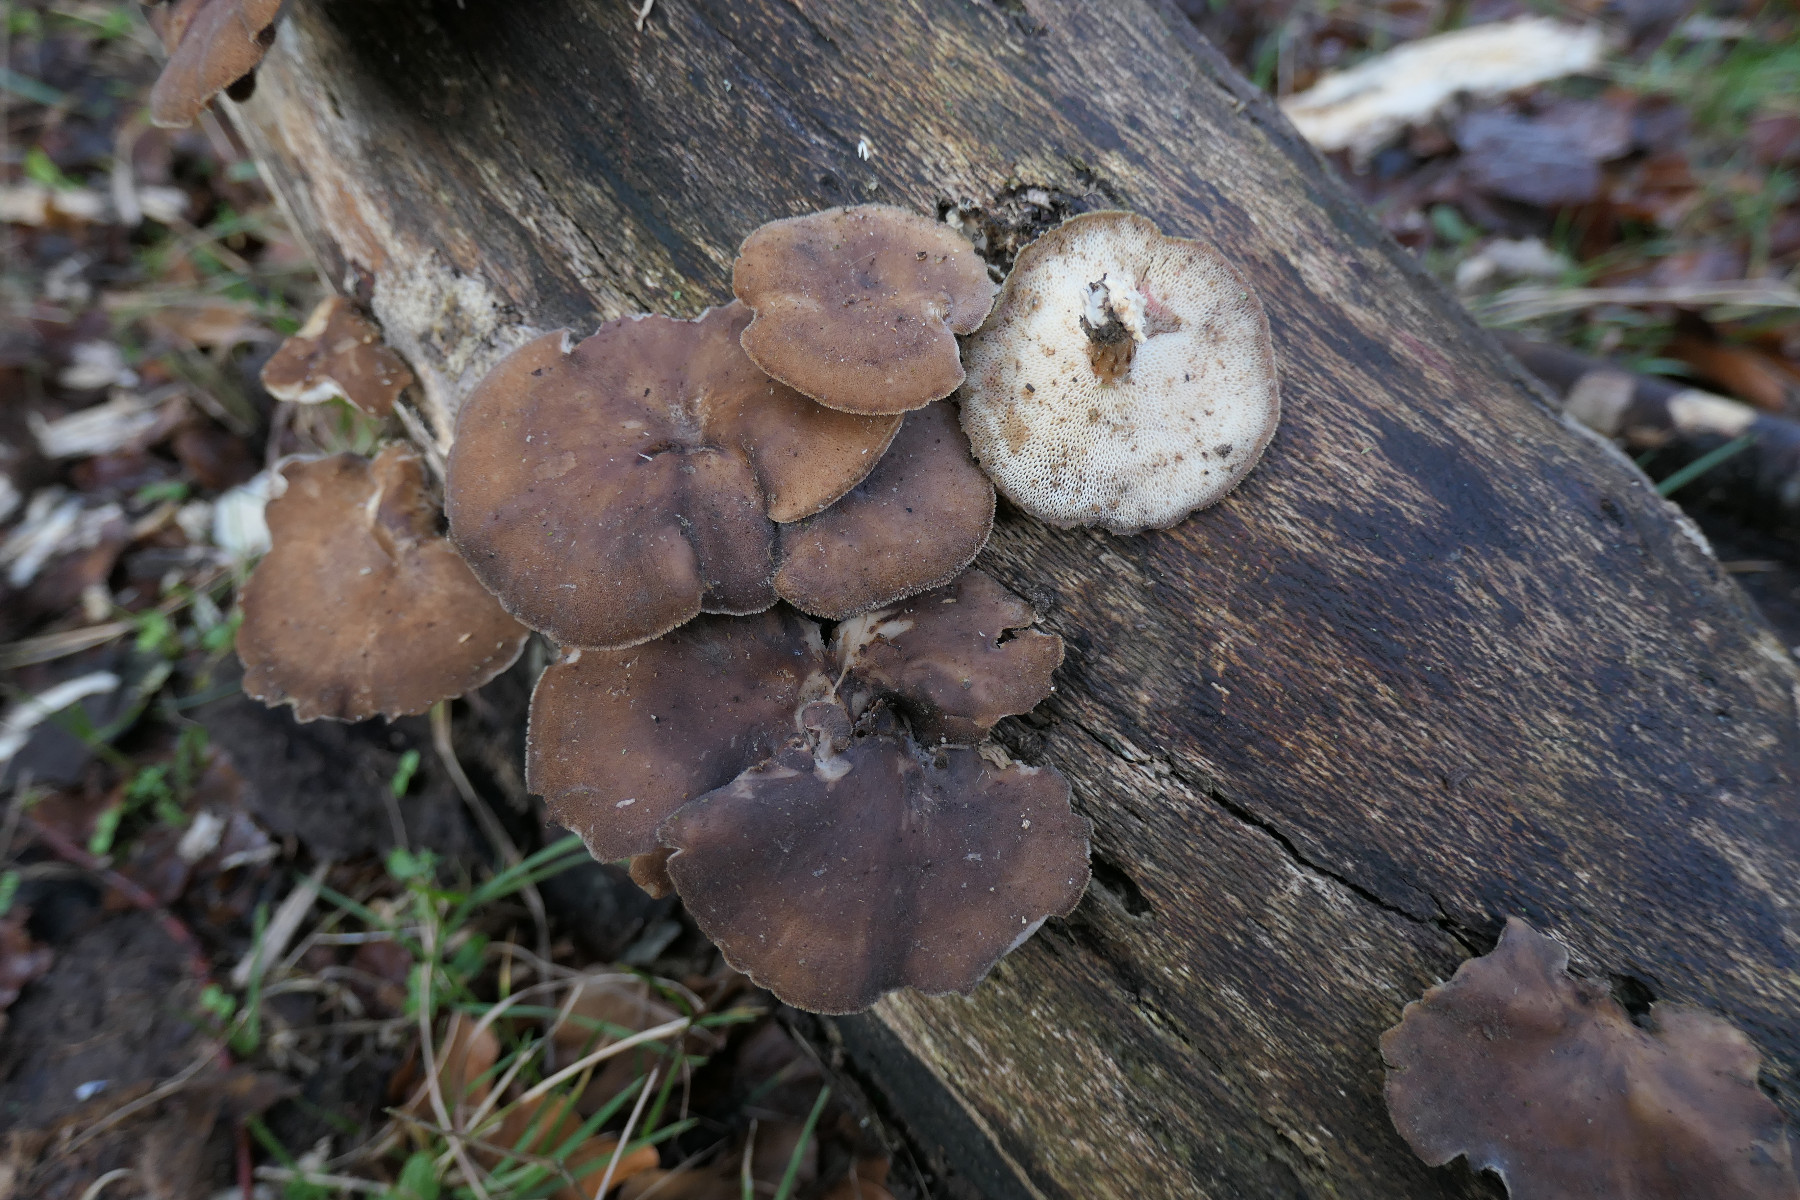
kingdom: Fungi
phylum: Basidiomycota
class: Agaricomycetes
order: Polyporales
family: Polyporaceae
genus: Lentinus
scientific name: Lentinus brumalis
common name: vinter-stilkporesvamp
